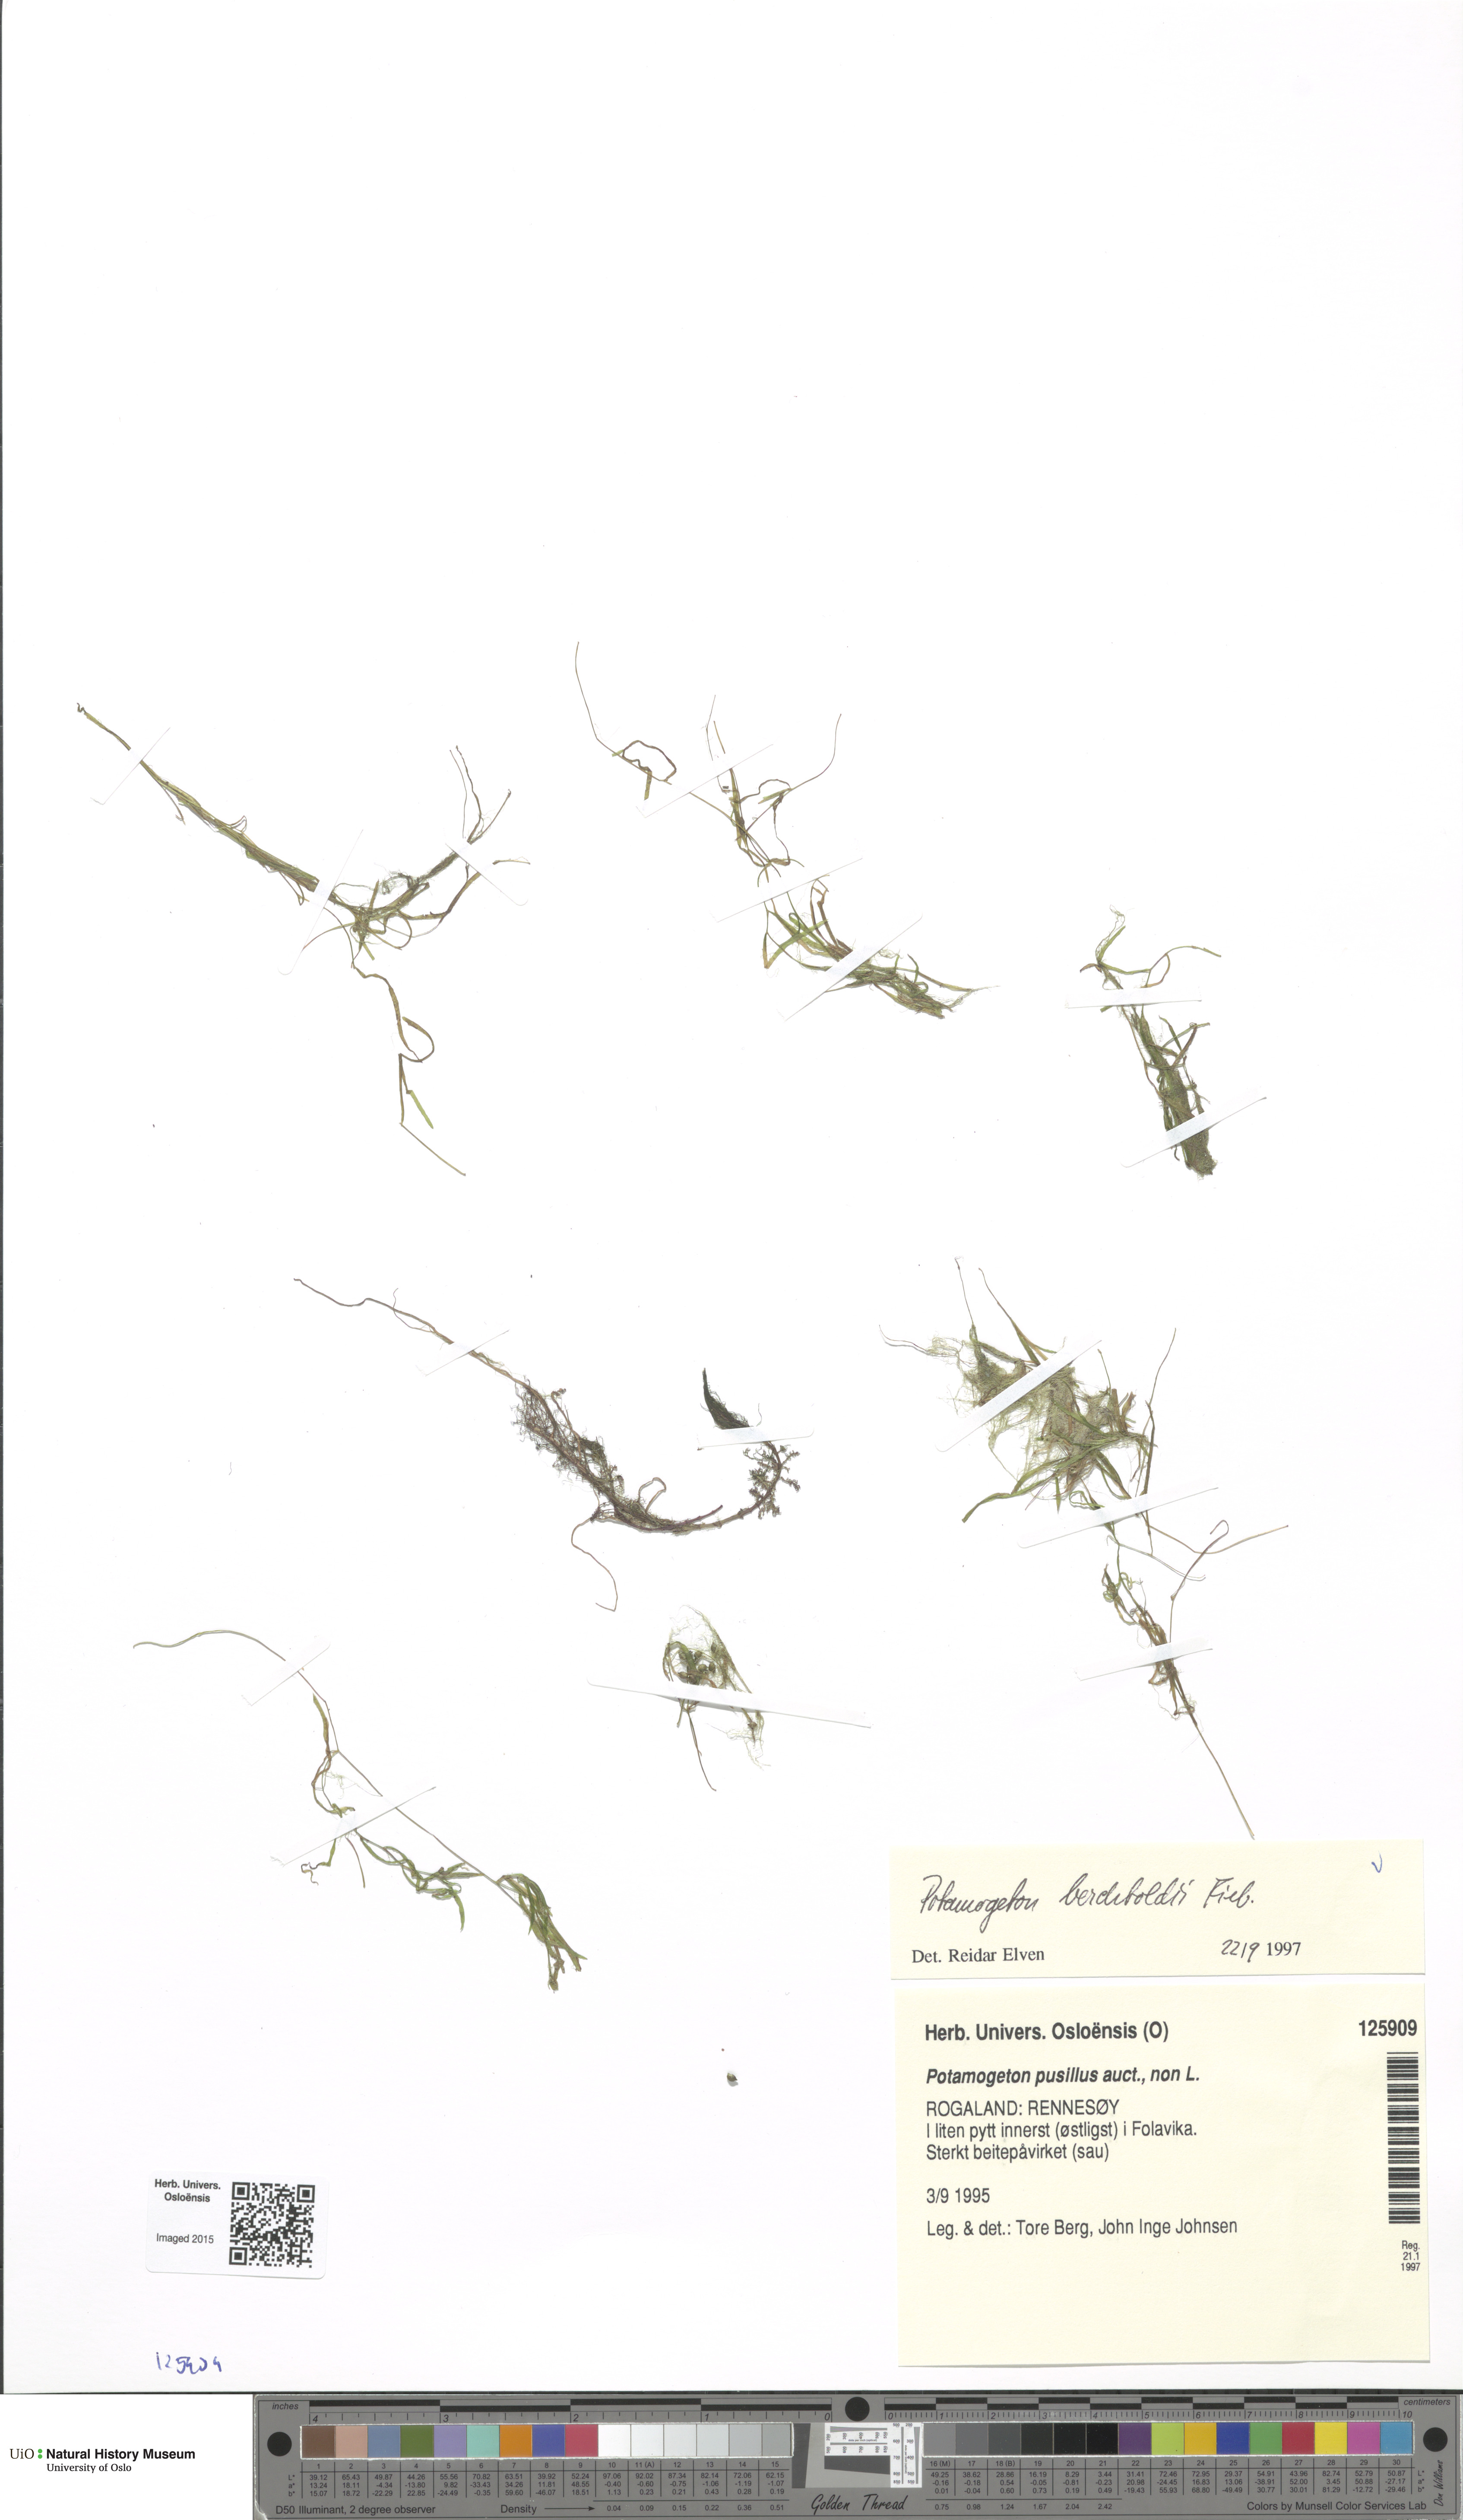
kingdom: Plantae
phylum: Tracheophyta
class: Liliopsida
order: Alismatales
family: Potamogetonaceae
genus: Potamogeton
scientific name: Potamogeton berchtoldii
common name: Small pondweed
